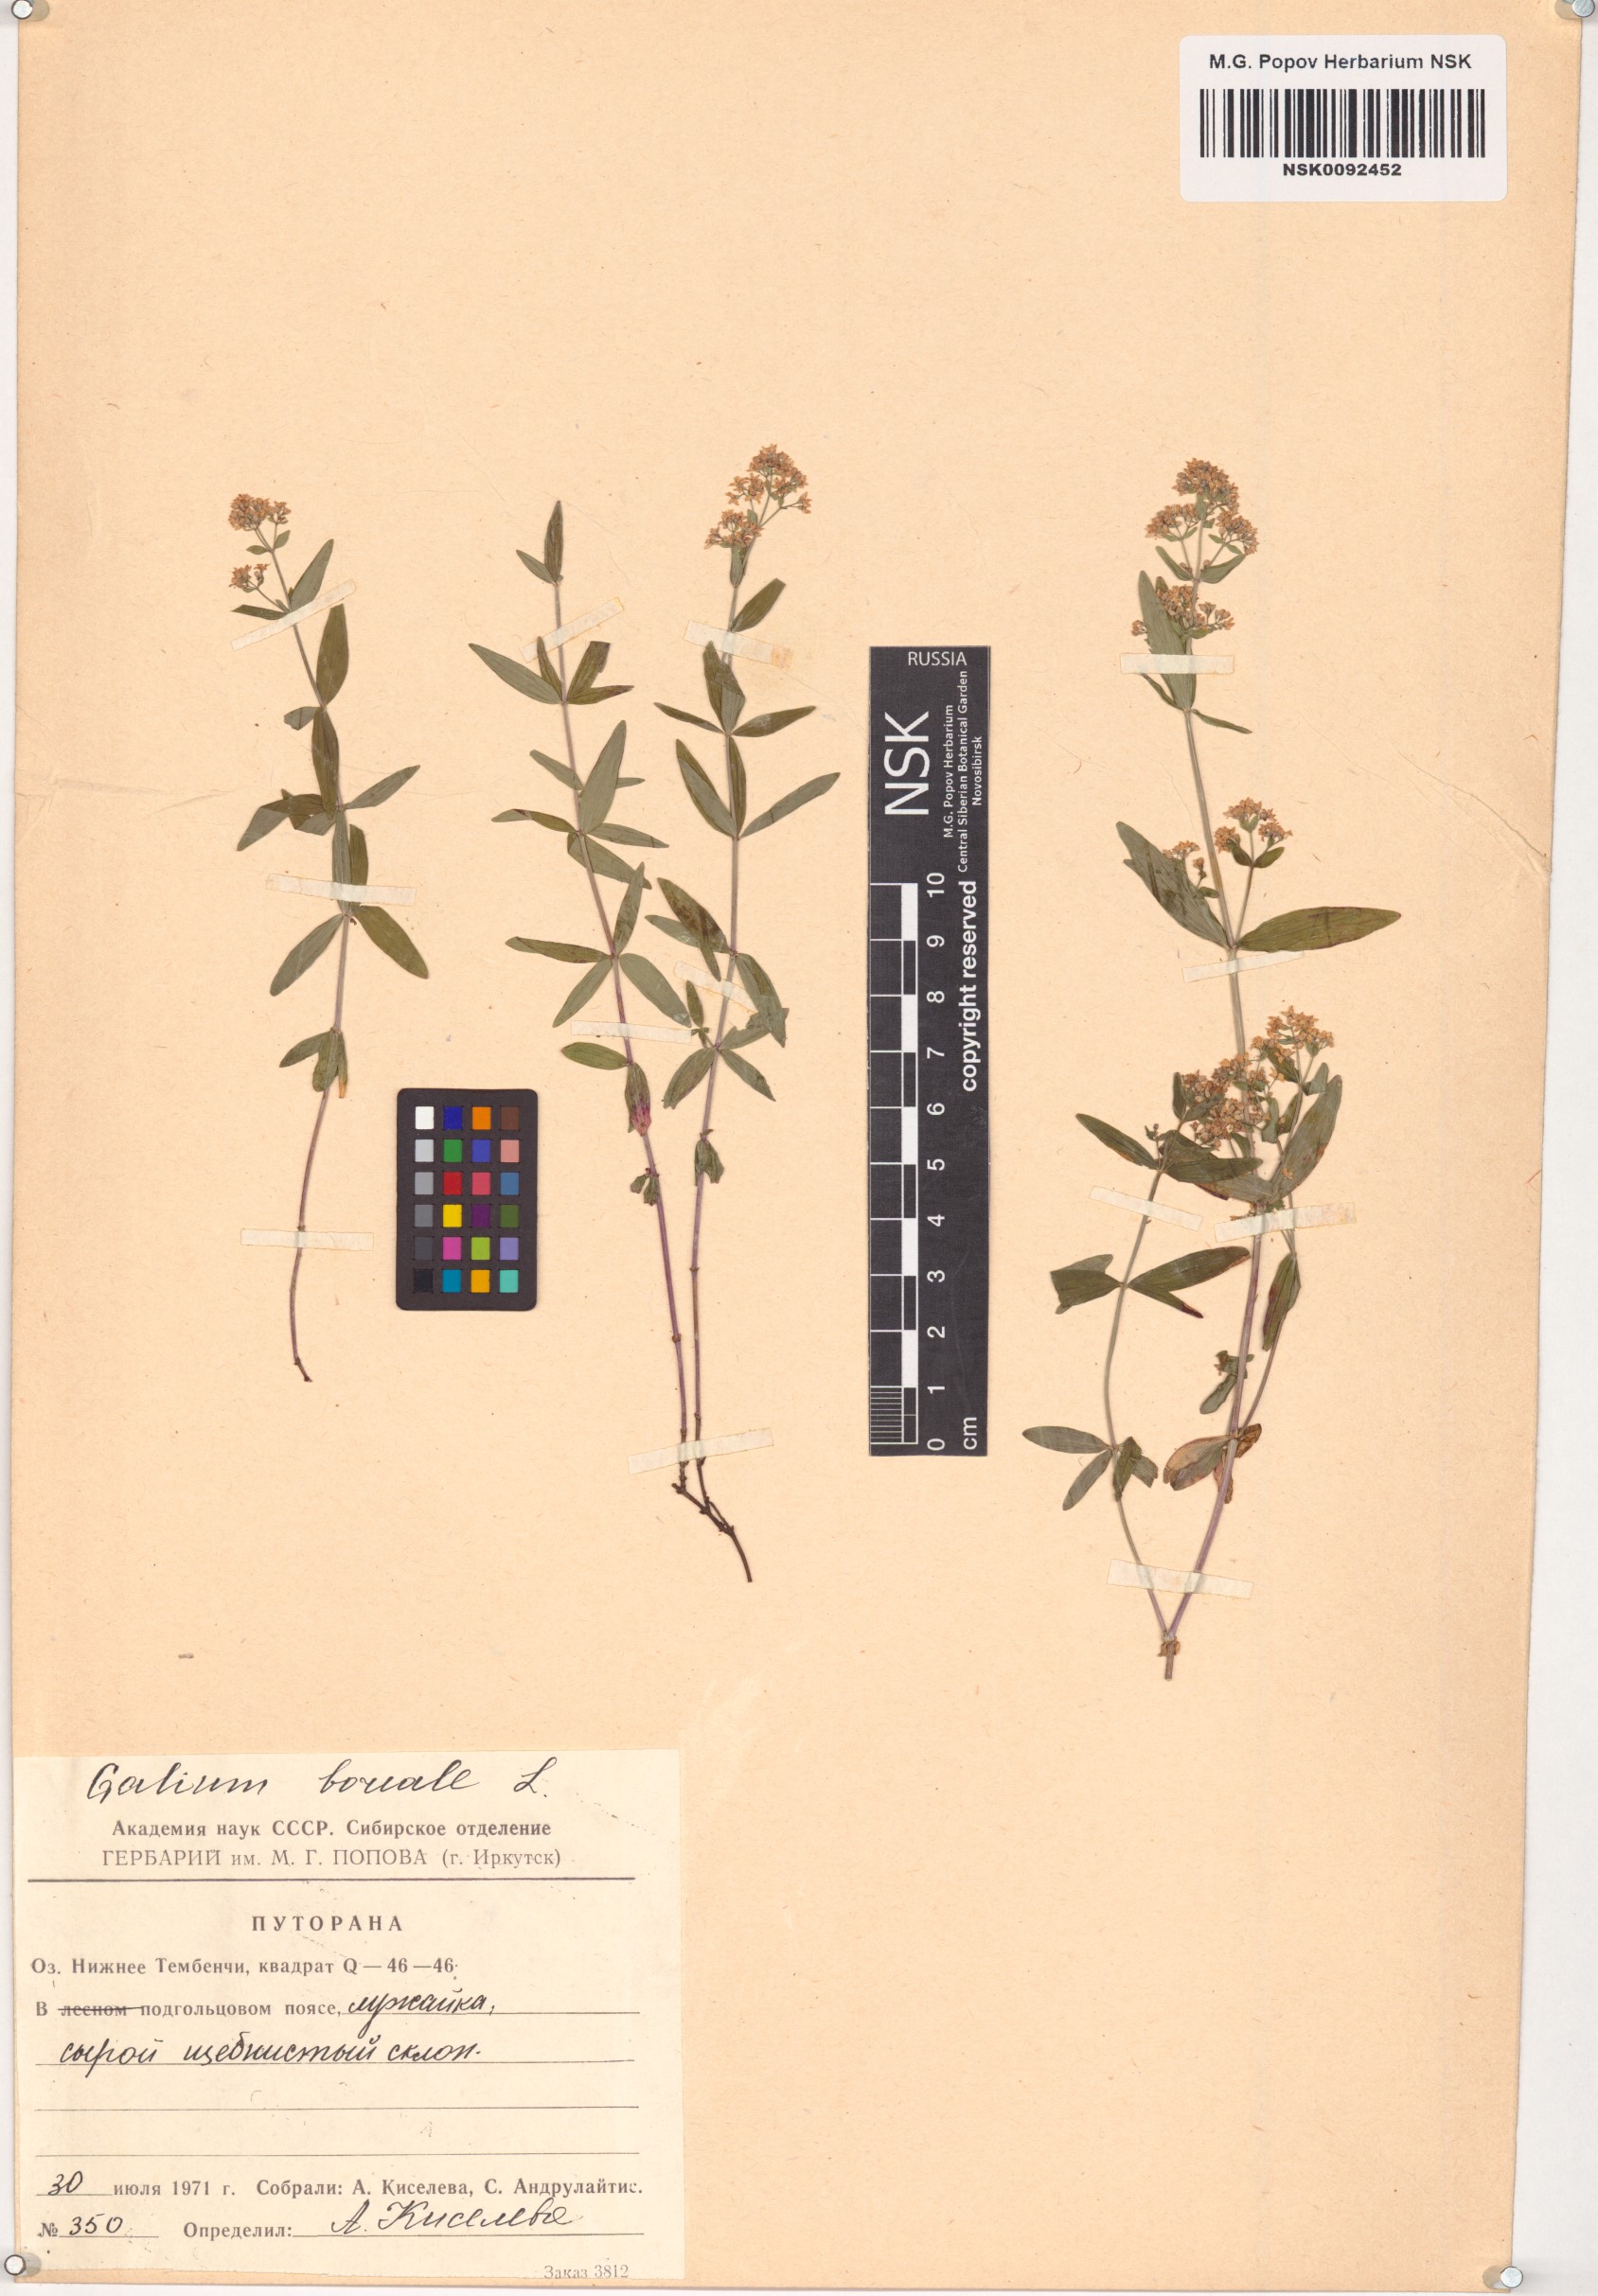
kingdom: Plantae
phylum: Tracheophyta
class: Magnoliopsida
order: Gentianales
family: Rubiaceae
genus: Galium
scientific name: Galium boreale
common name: Northern bedstraw
